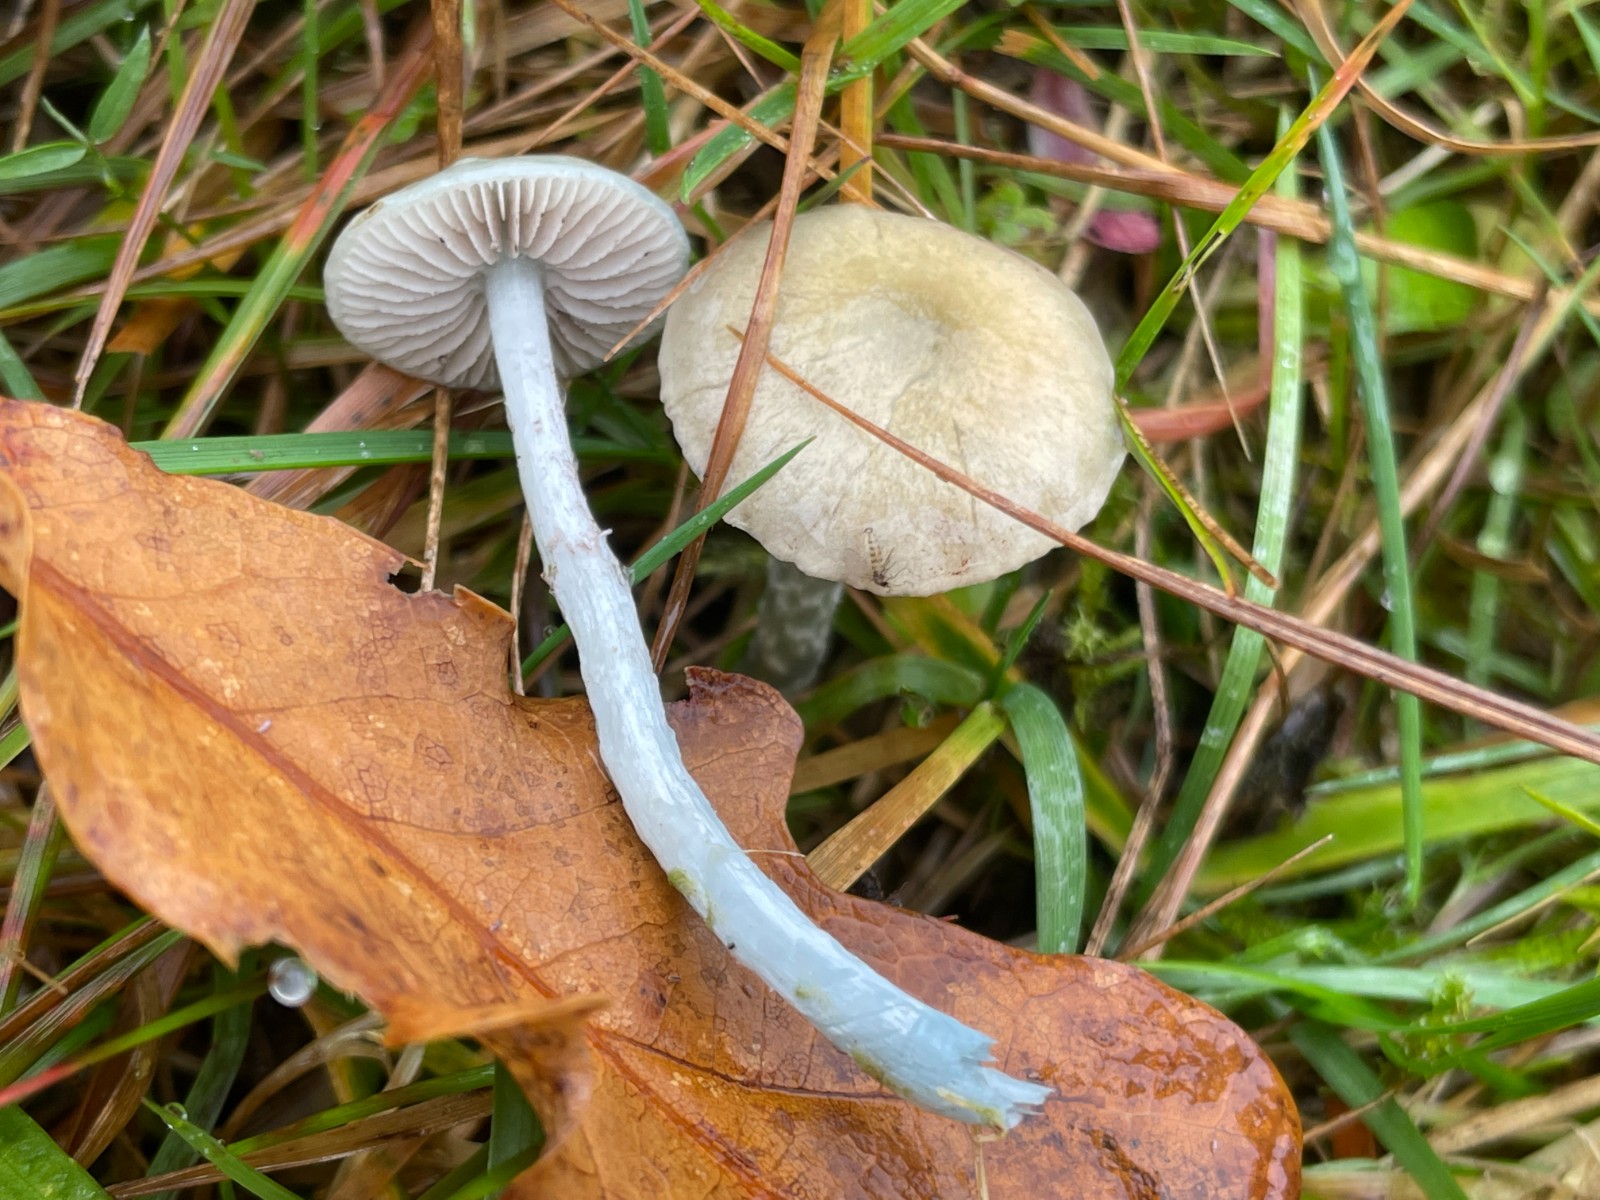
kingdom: Fungi
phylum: Basidiomycota
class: Agaricomycetes
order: Agaricales
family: Strophariaceae
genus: Stropharia
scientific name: Stropharia cyanea
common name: blågrøn bredblad
